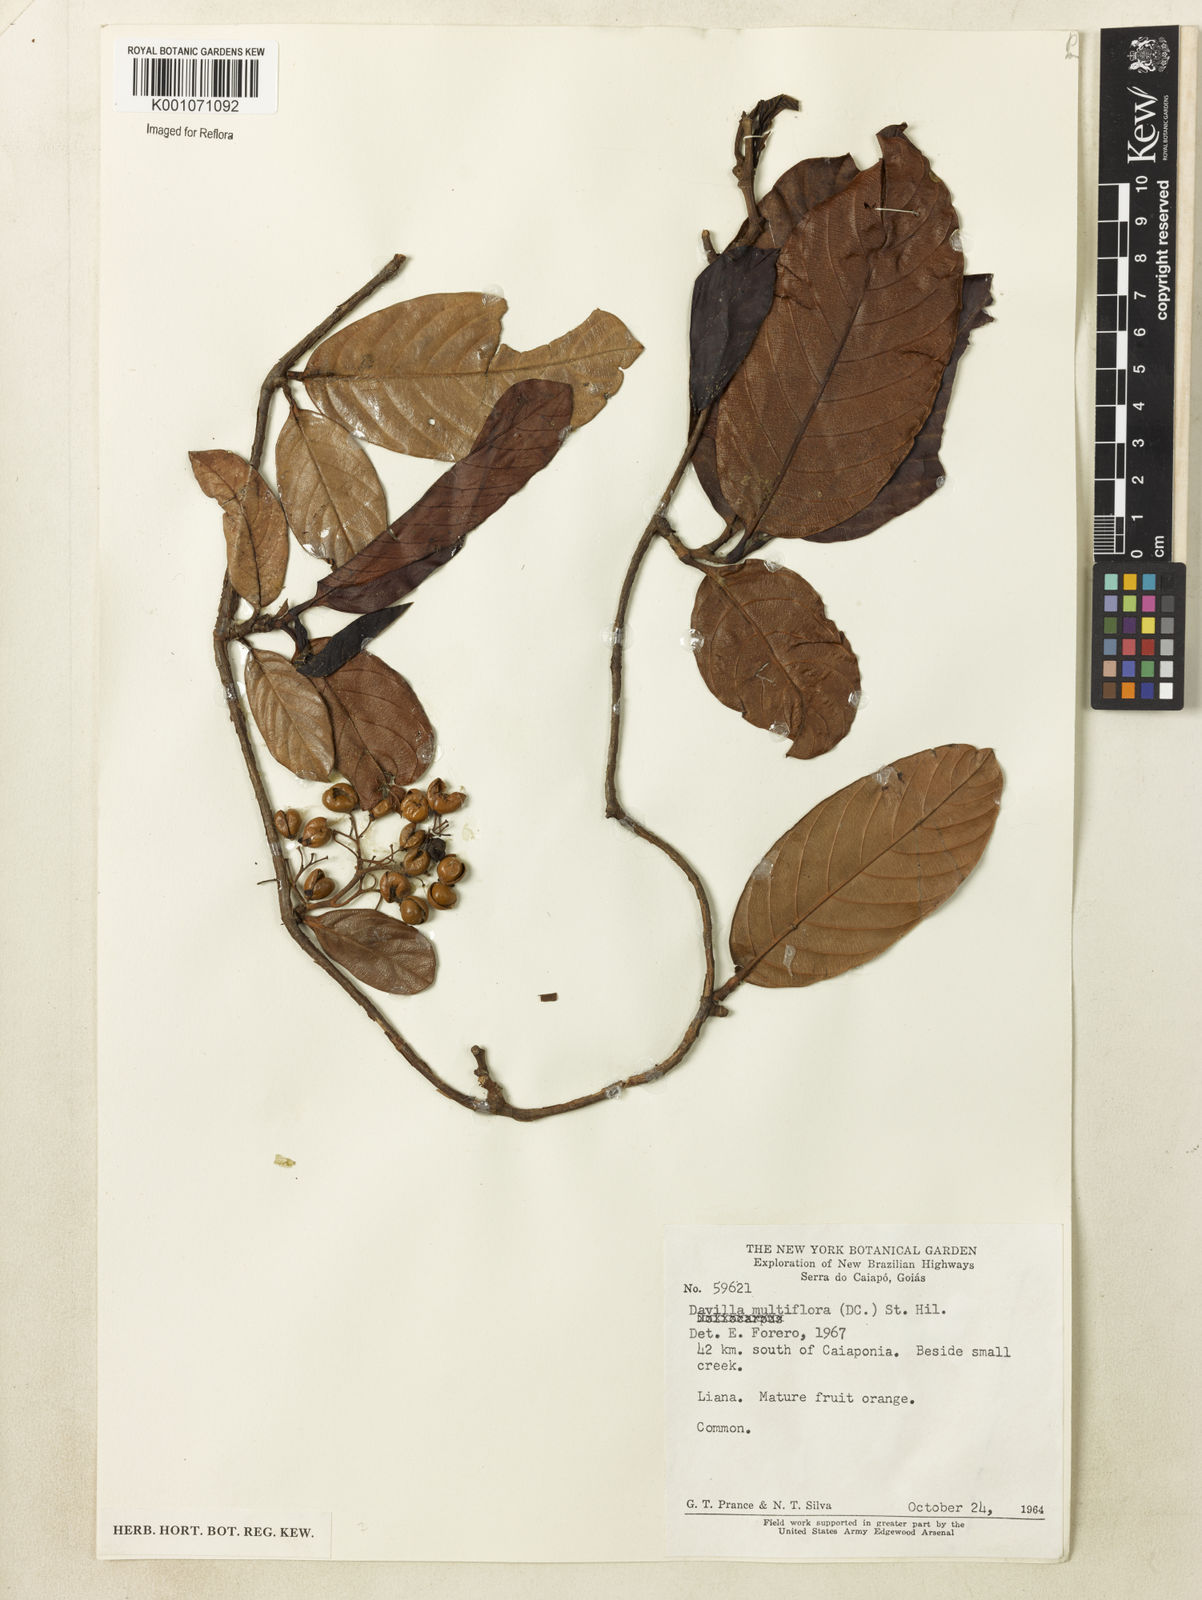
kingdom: Plantae
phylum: Tracheophyta
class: Magnoliopsida
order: Dilleniales
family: Dilleniaceae
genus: Davilla
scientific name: Davilla nitida
